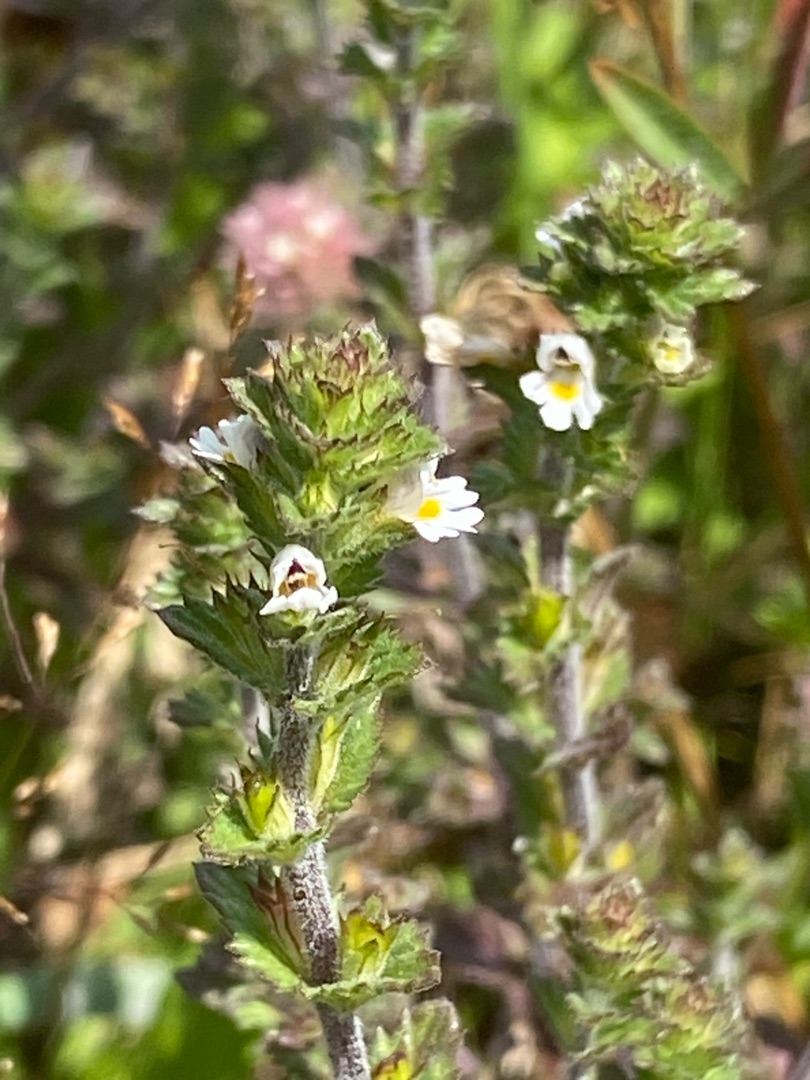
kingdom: Plantae
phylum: Tracheophyta
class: Magnoliopsida
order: Lamiales
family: Orobanchaceae
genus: Euphrasia
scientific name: Euphrasia nemorosa
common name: Kort øjentrøst
